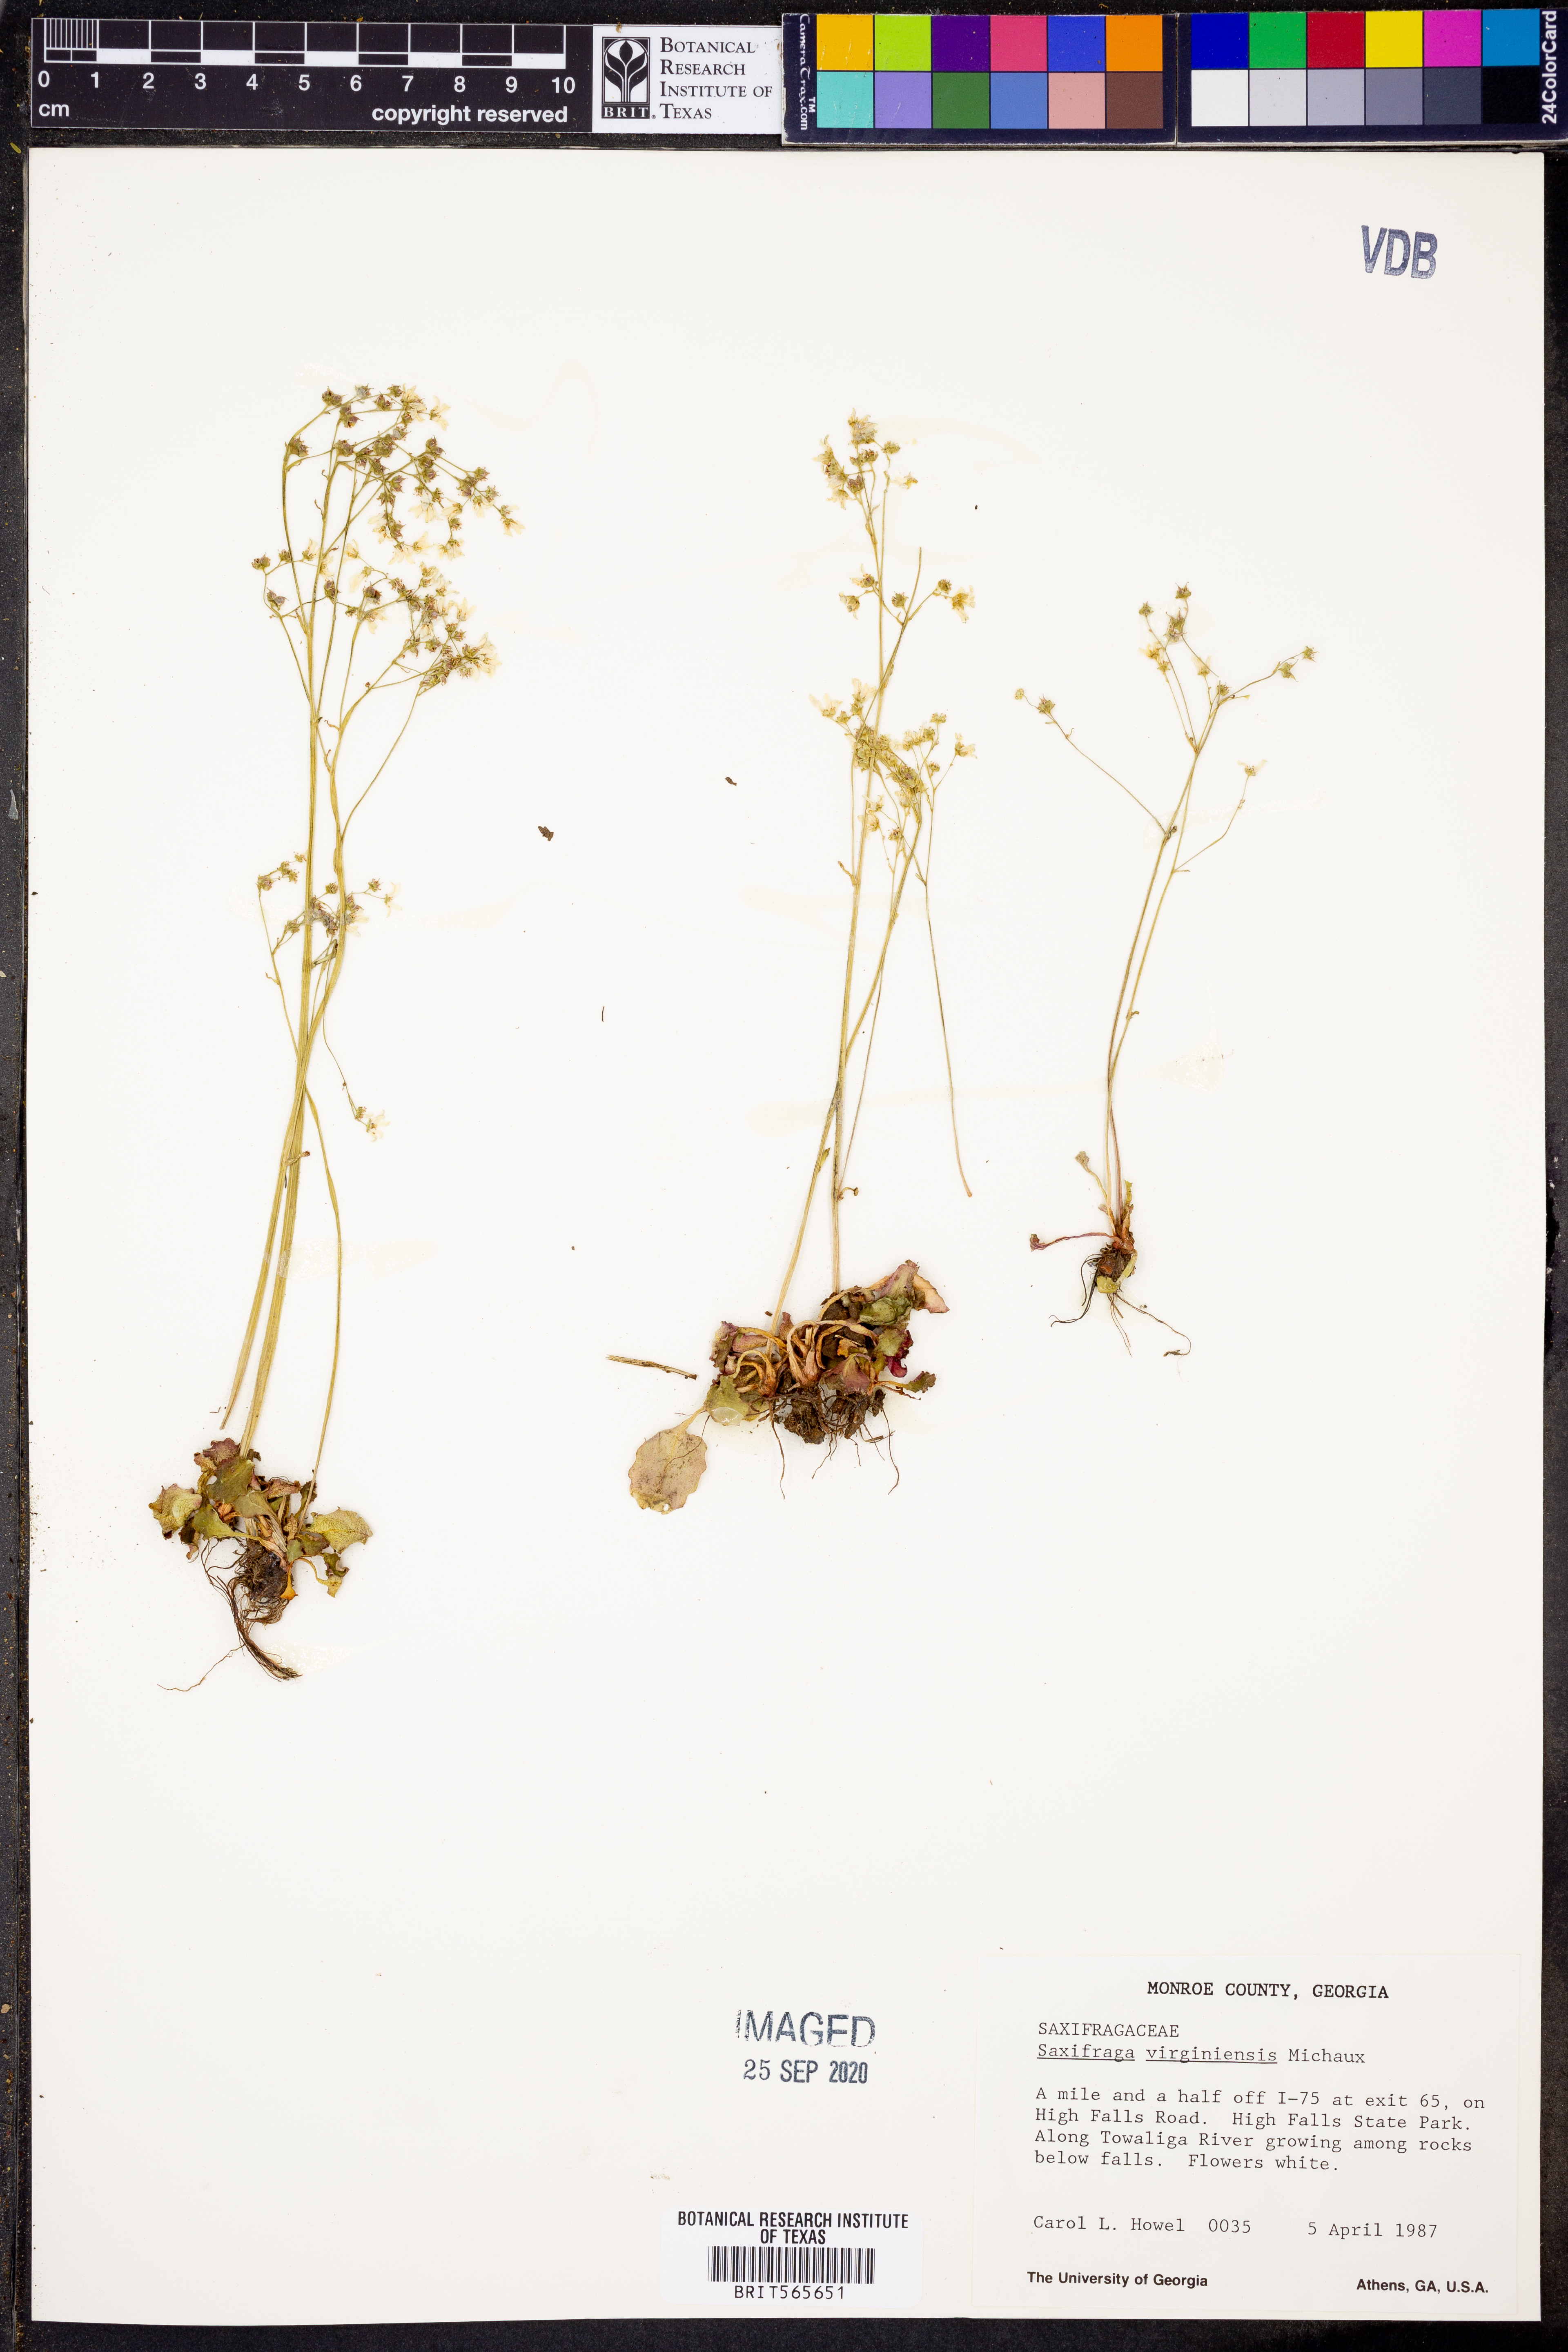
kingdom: Plantae
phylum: Tracheophyta
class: Magnoliopsida
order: Saxifragales
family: Saxifragaceae
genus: Micranthes
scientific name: Micranthes virginiensis
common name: Early saxifrage
